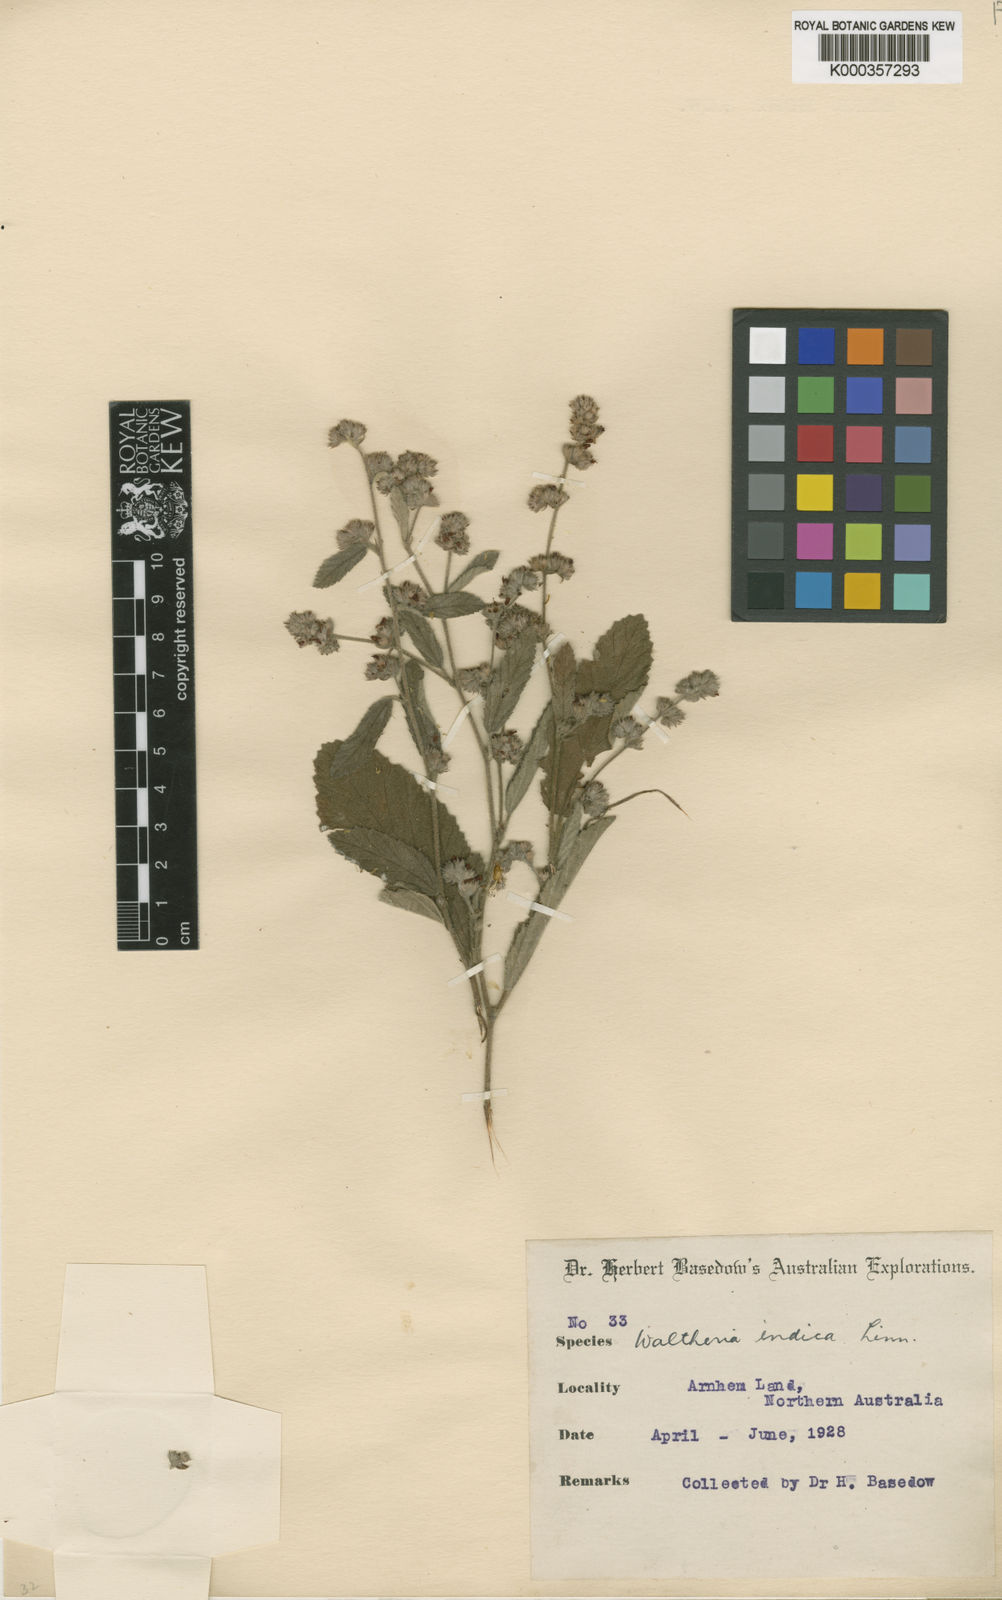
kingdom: Plantae
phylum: Tracheophyta
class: Magnoliopsida
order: Malvales
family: Malvaceae
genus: Waltheria
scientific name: Waltheria indica
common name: Leather-coat
